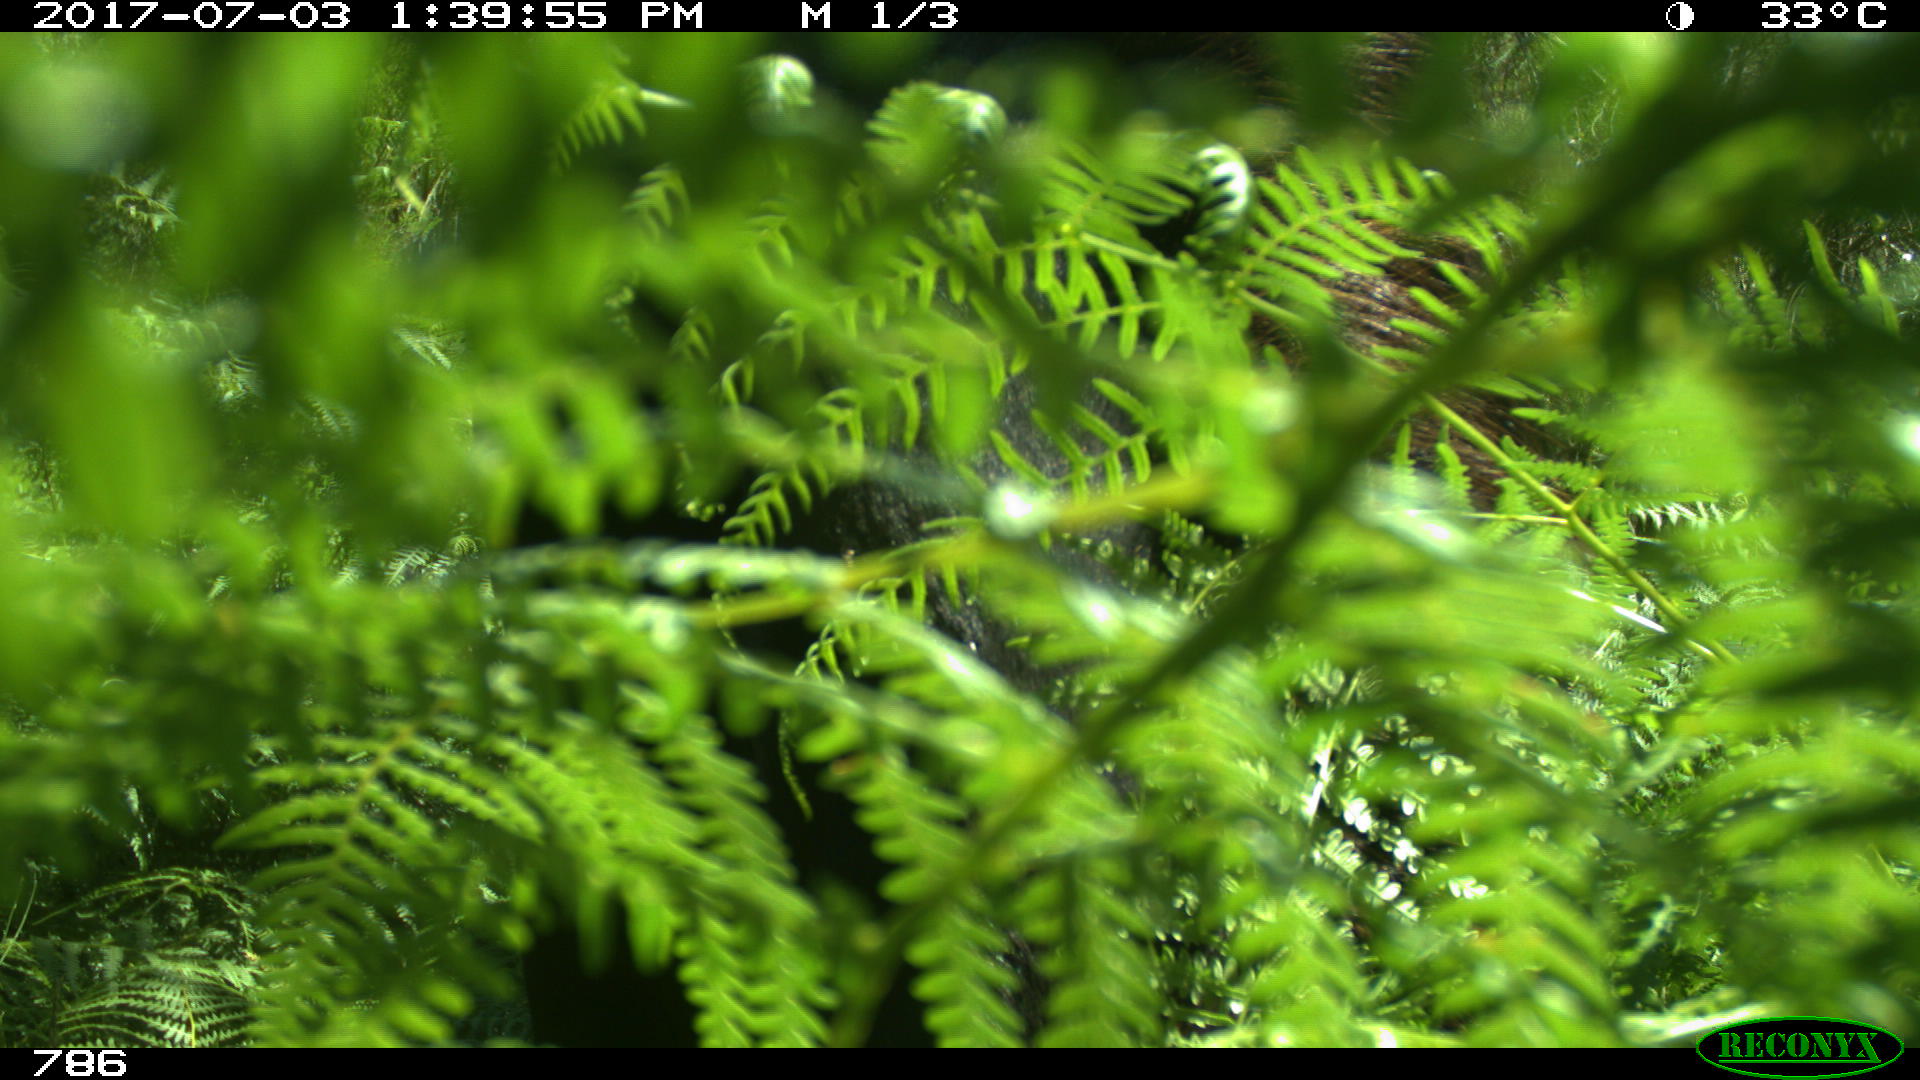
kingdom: Animalia
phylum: Chordata
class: Mammalia
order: Perissodactyla
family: Equidae
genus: Equus
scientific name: Equus caballus
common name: Horse
